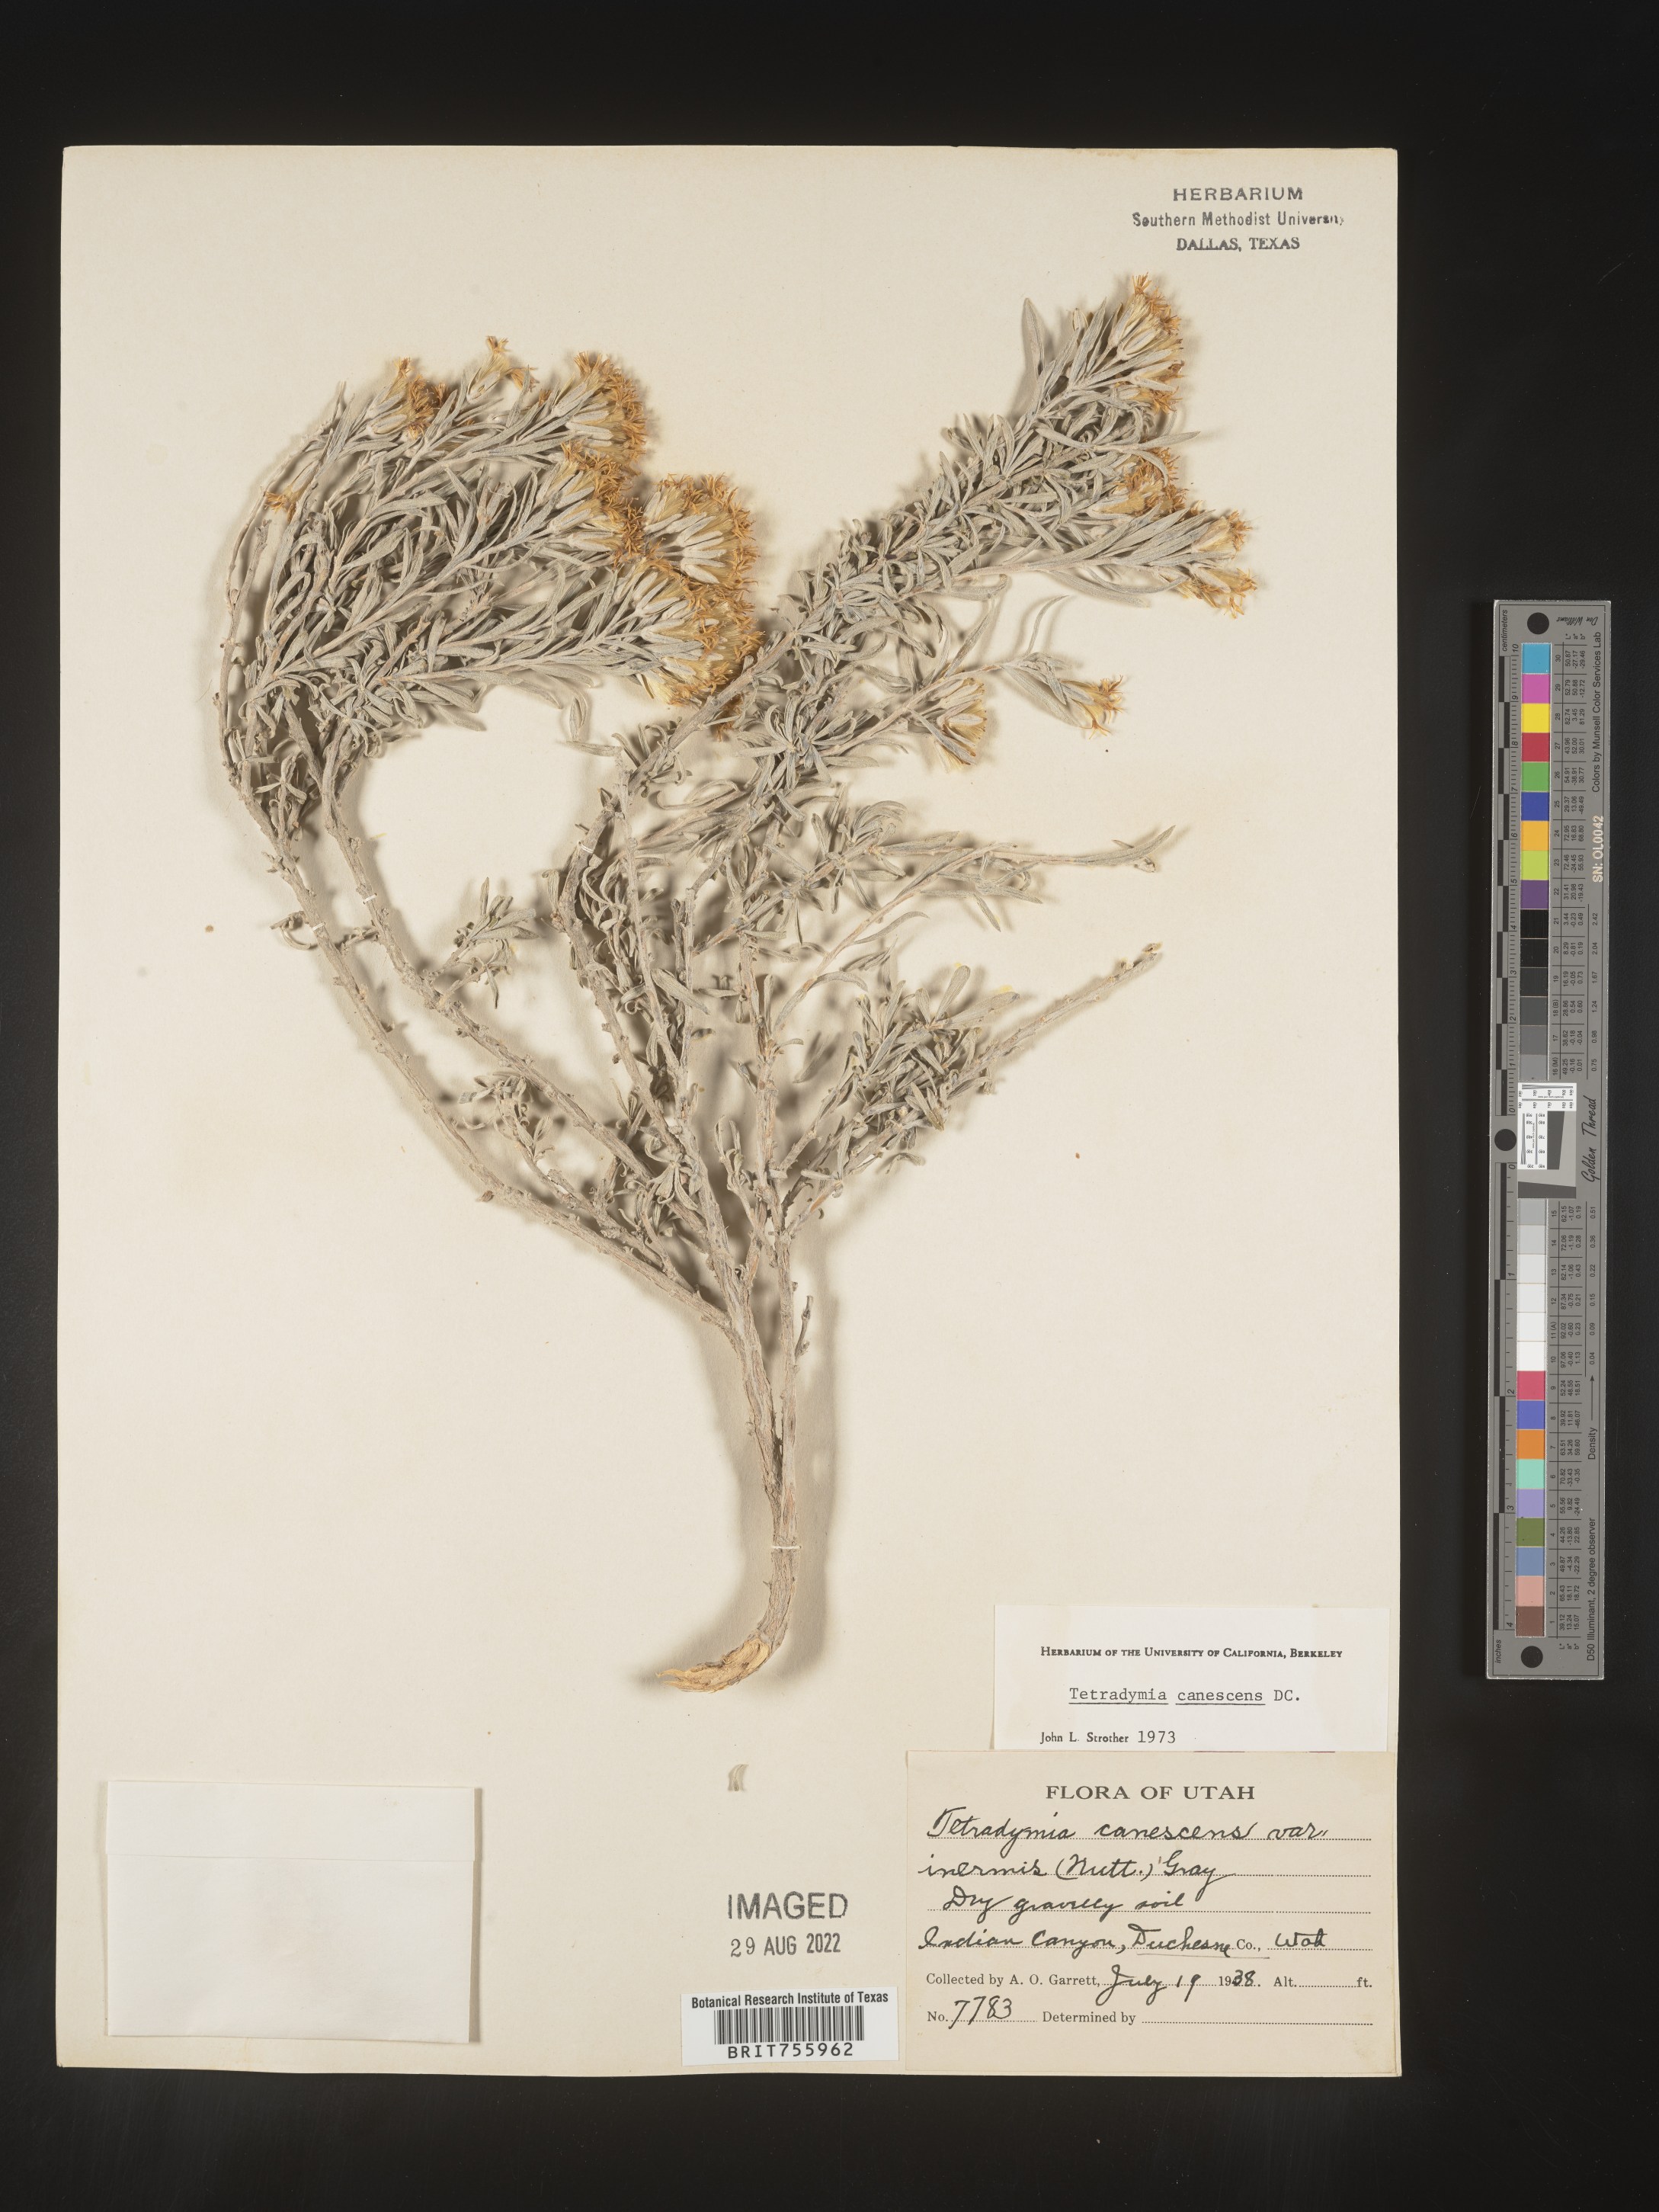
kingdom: Plantae
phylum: Tracheophyta
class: Magnoliopsida
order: Asterales
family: Asteraceae
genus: Tetradymia
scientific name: Tetradymia canescens
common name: Spineless horsebrush
